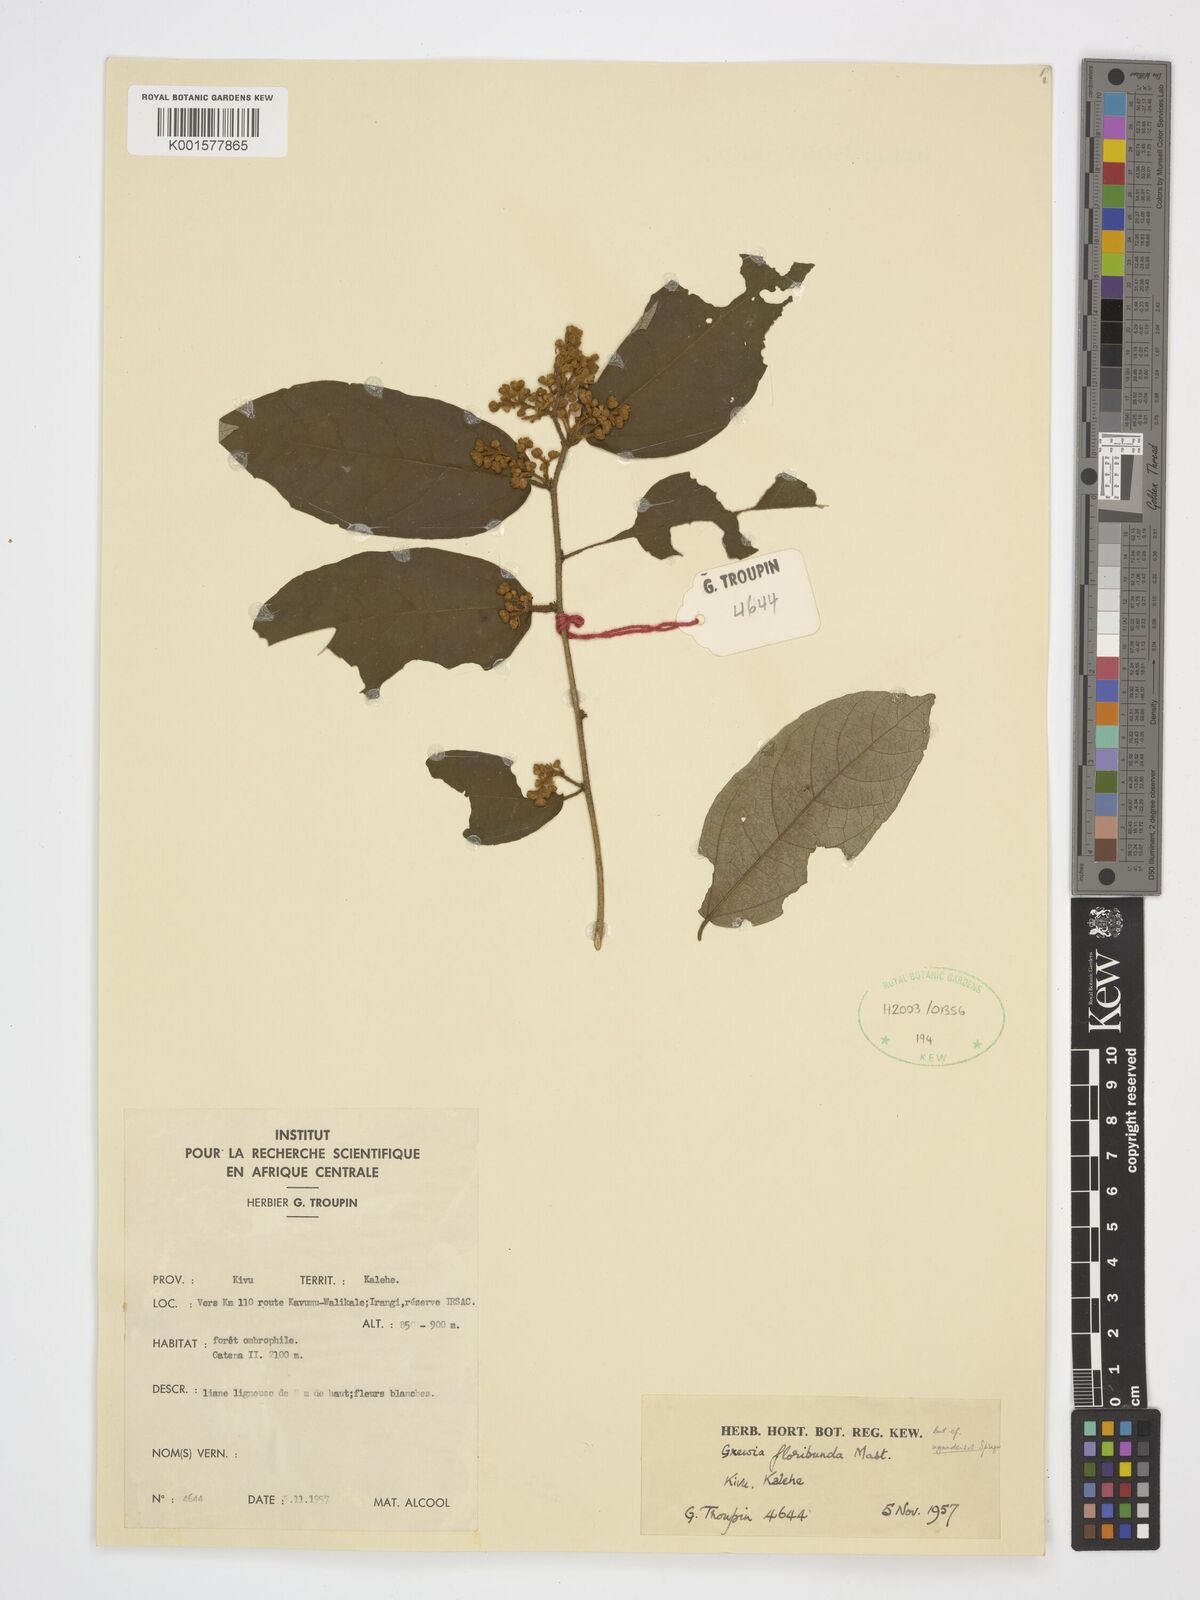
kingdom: Plantae
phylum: Tracheophyta
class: Magnoliopsida
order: Malvales
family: Malvaceae
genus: Microcos
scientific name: Microcos floribunda
